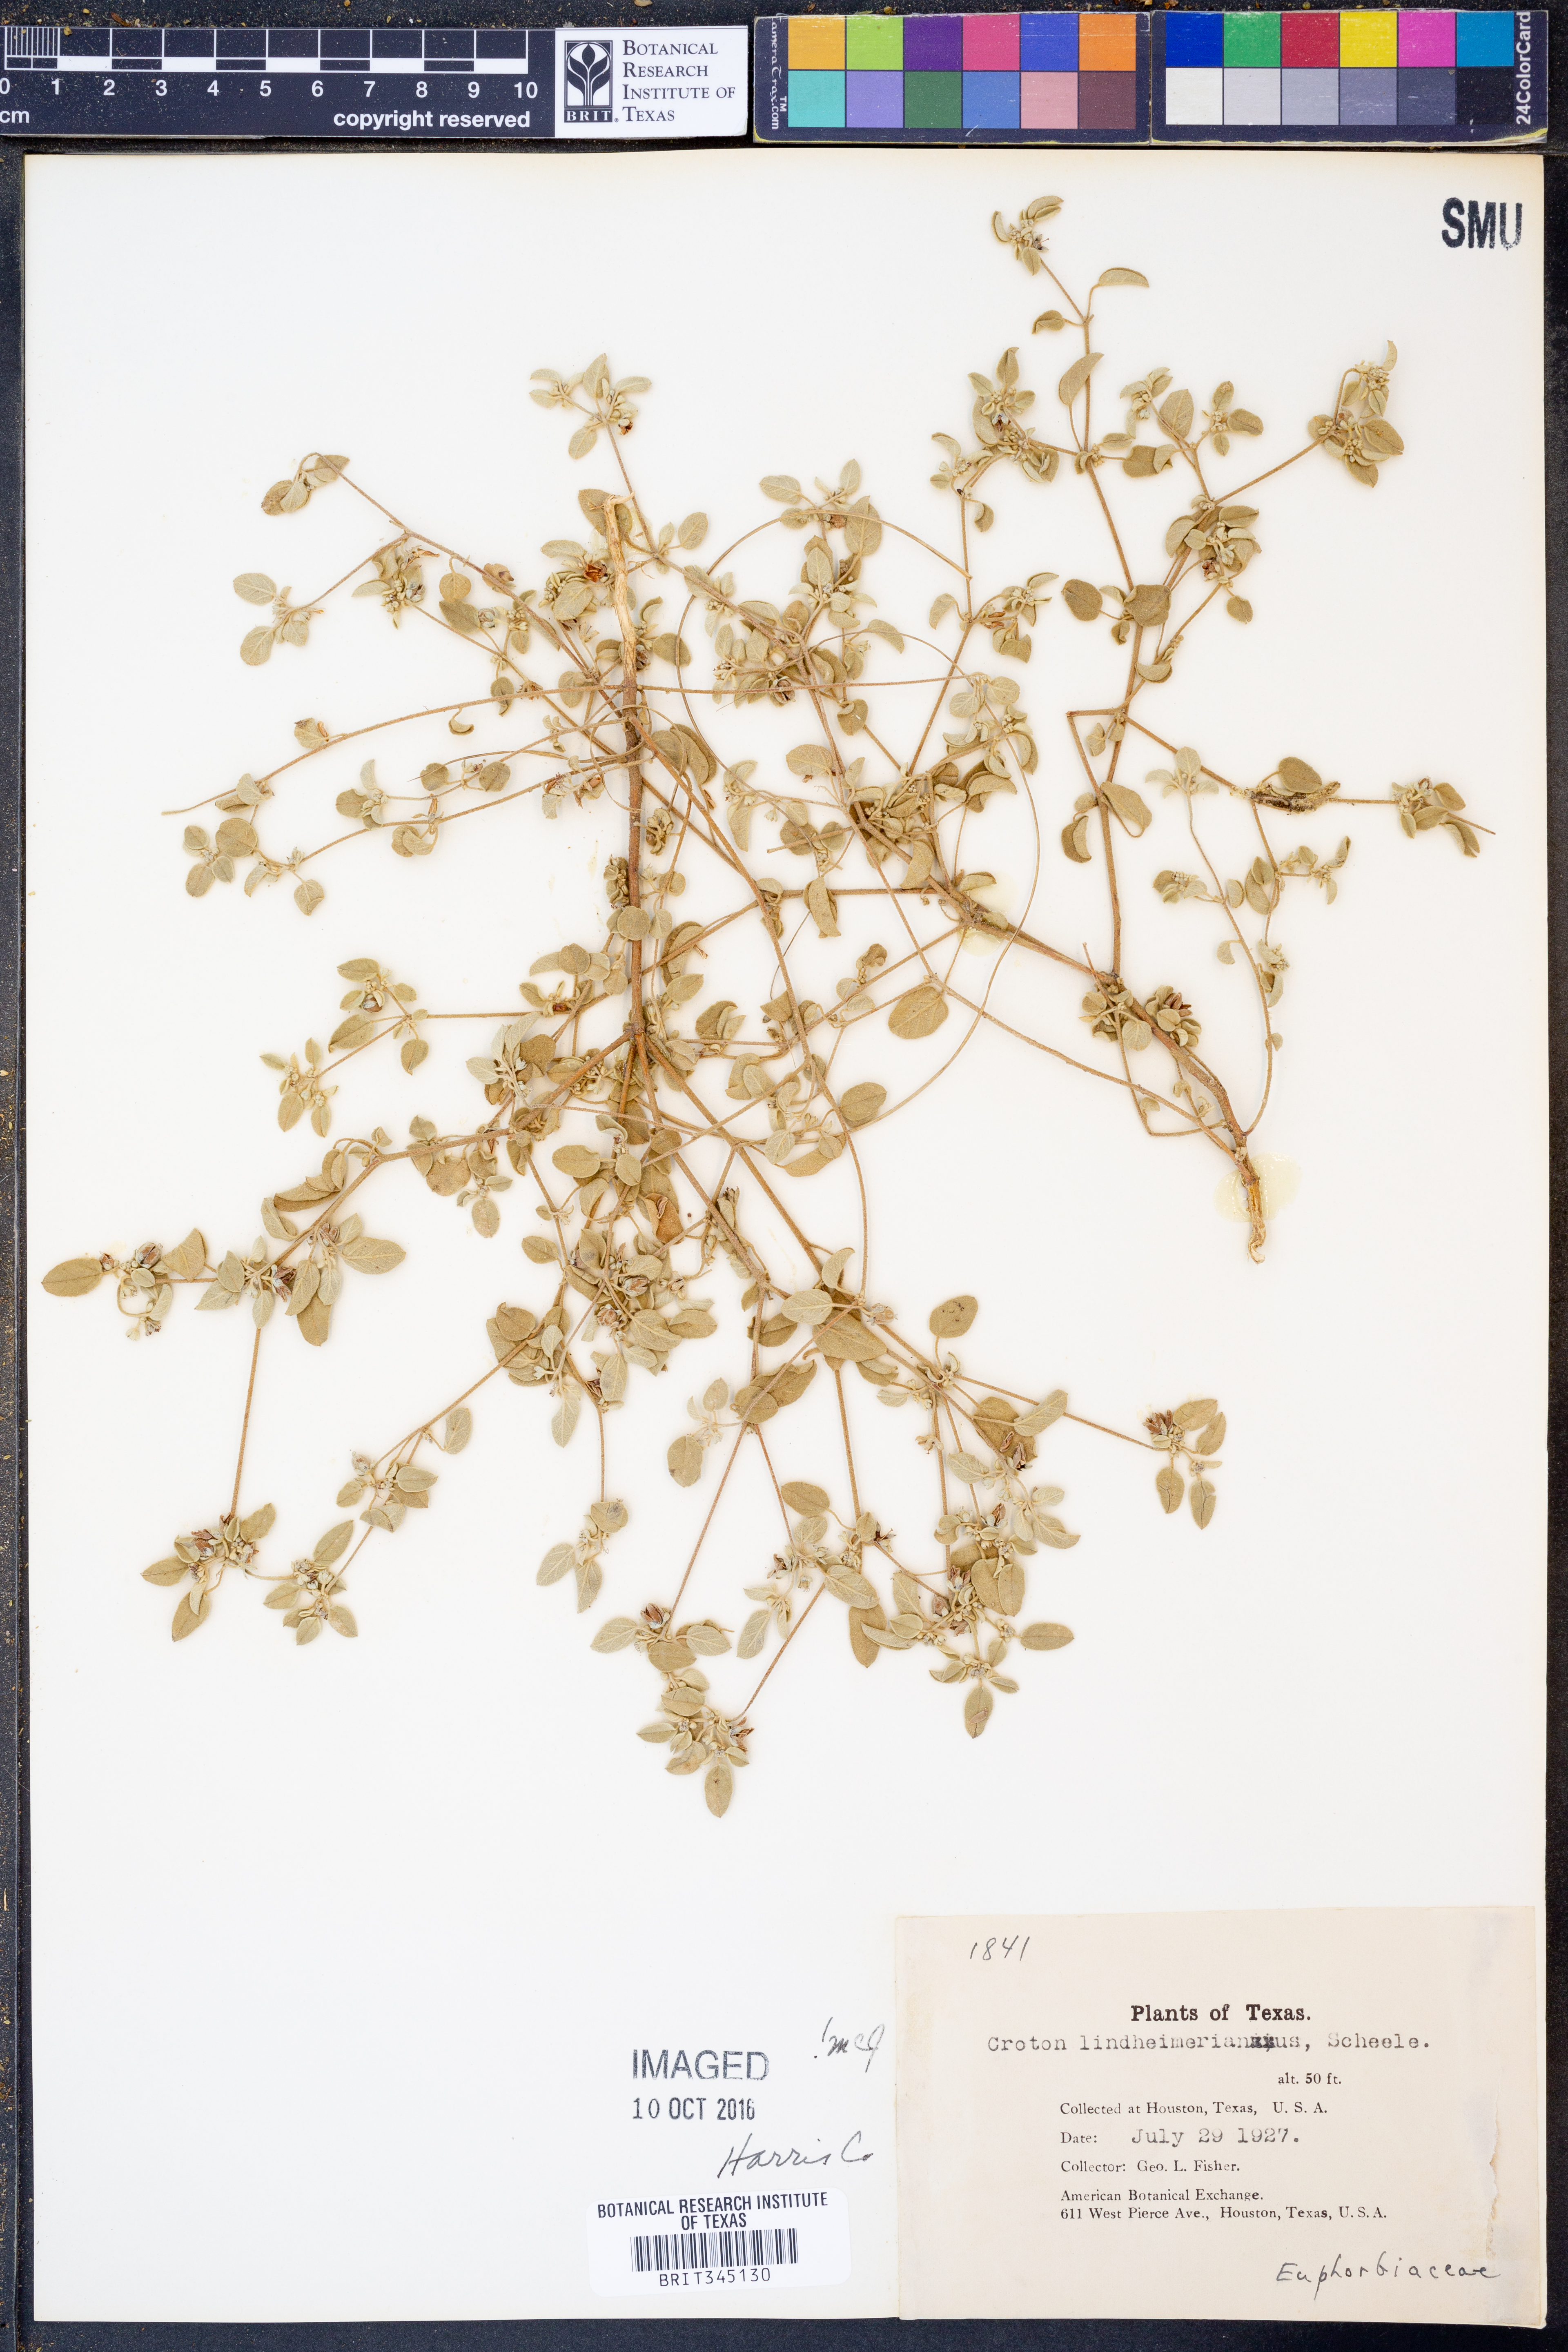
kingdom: Plantae
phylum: Tracheophyta
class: Magnoliopsida
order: Malpighiales
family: Euphorbiaceae
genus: Croton
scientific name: Croton lindheimerianus
